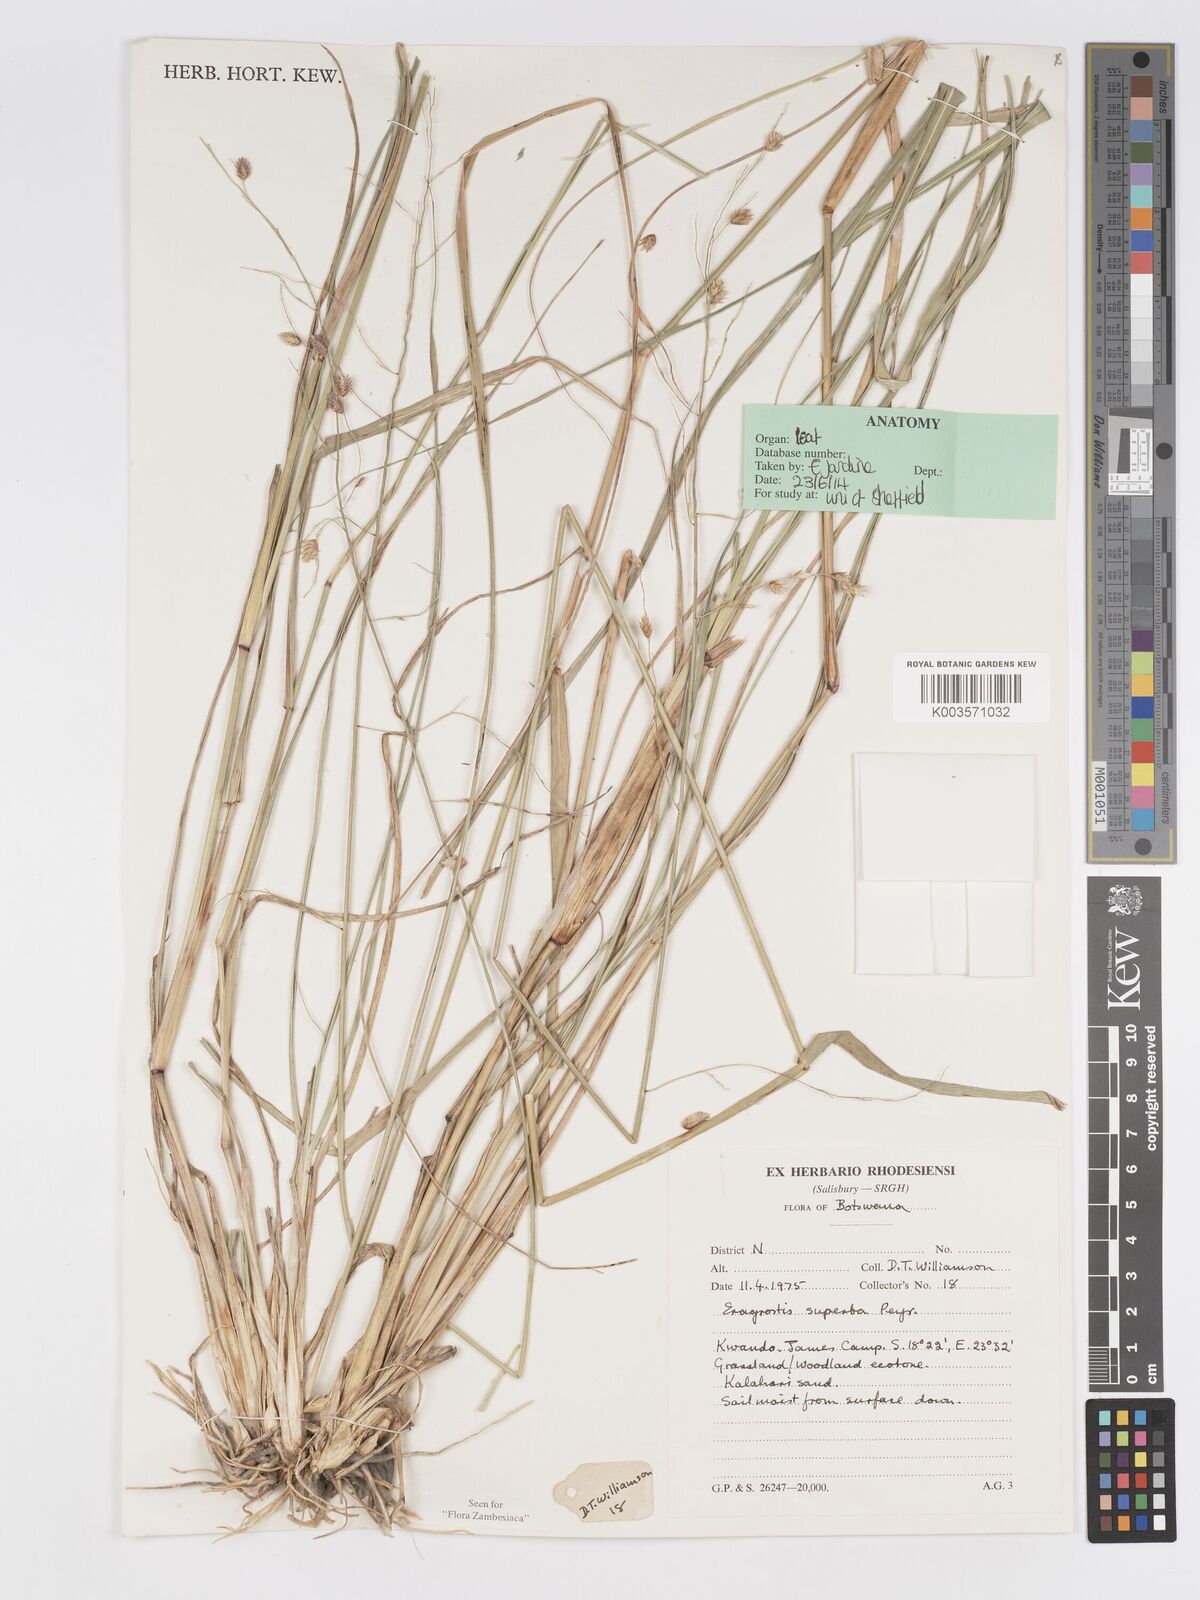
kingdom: Plantae
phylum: Tracheophyta
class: Liliopsida
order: Poales
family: Poaceae
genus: Eragrostis
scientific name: Eragrostis superba
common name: Wilman lovegrass
